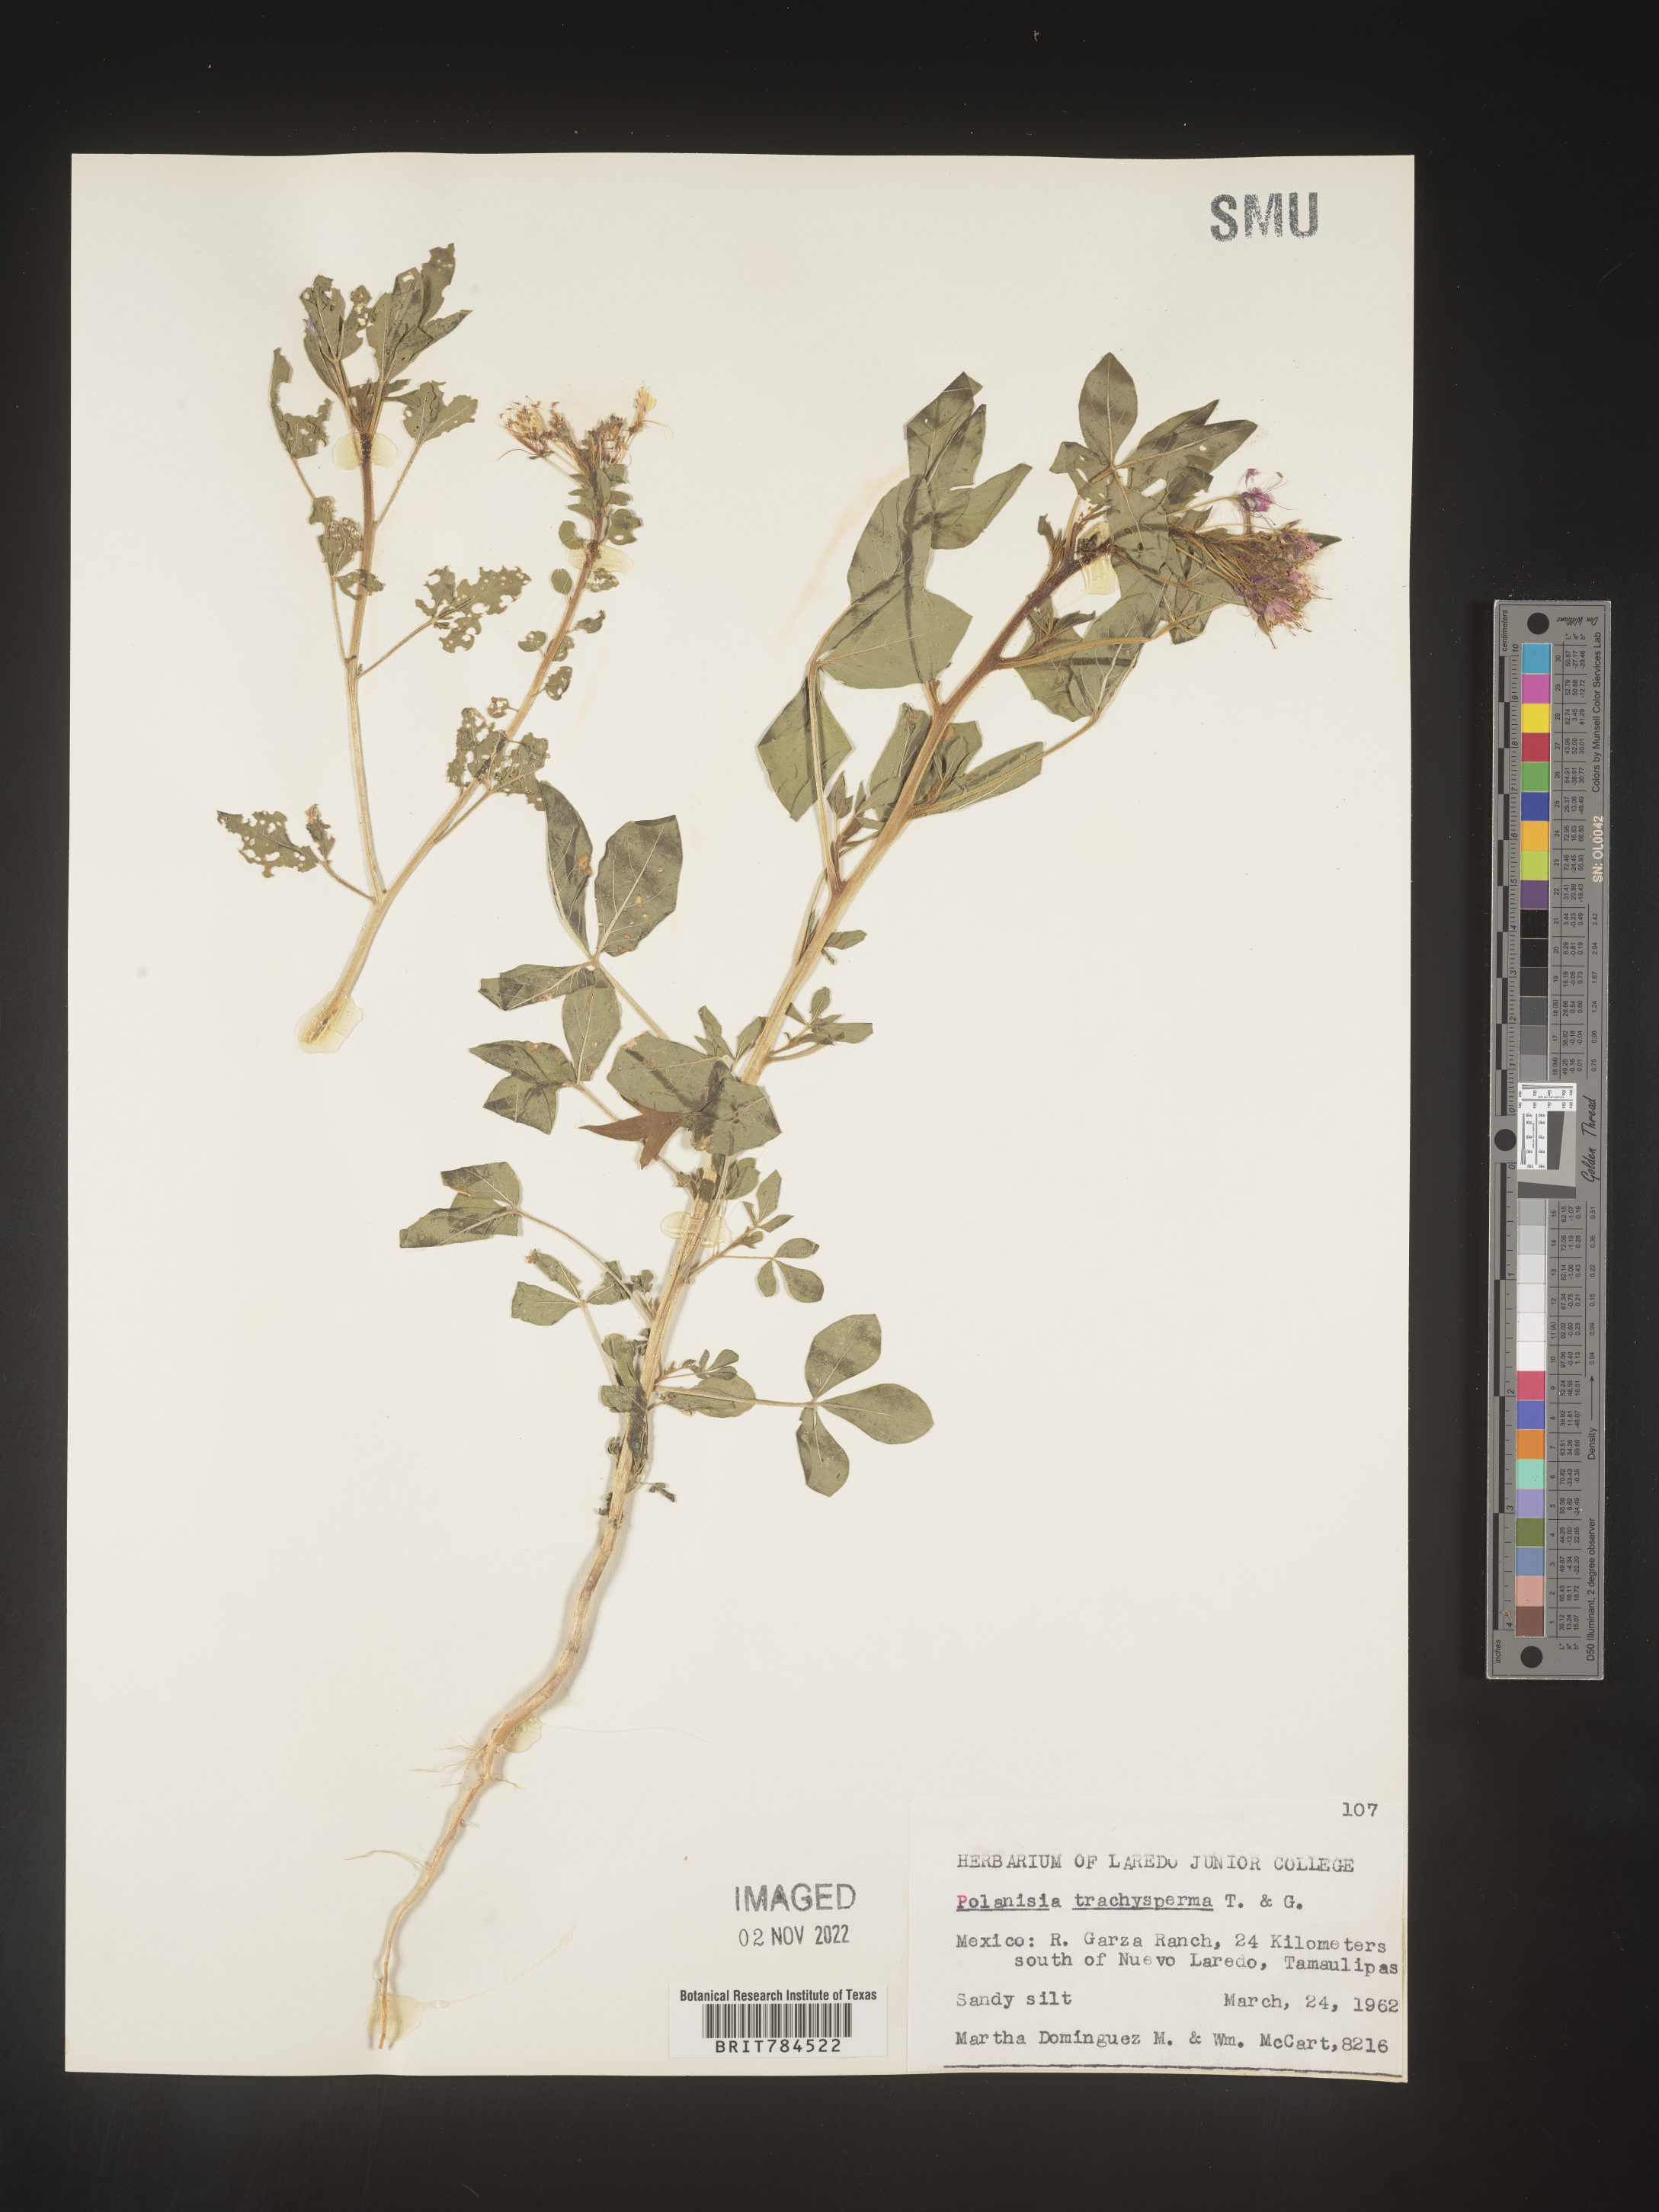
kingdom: Plantae
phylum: Tracheophyta
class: Magnoliopsida
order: Brassicales
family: Cleomaceae
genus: Polanisia
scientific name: Polanisia
